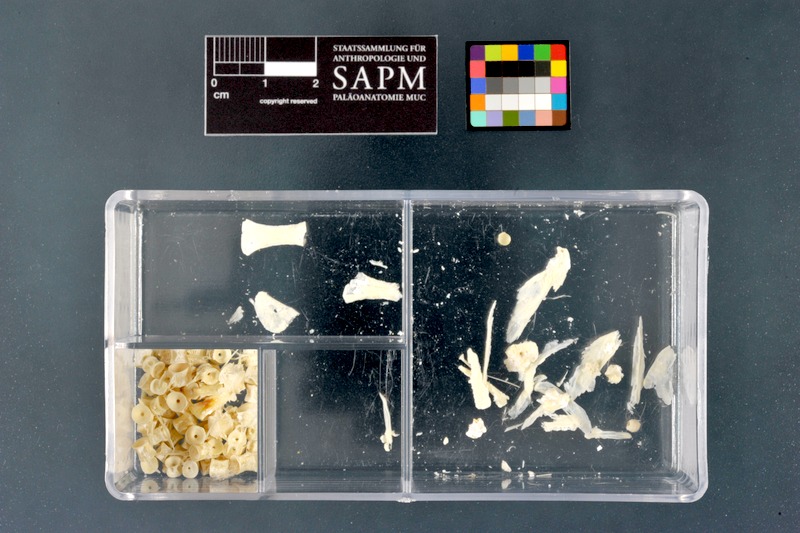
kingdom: Animalia
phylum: Chordata
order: Salmoniformes
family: Salmonidae
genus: Salvelinus
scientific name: Salvelinus alpinus
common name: Charr
